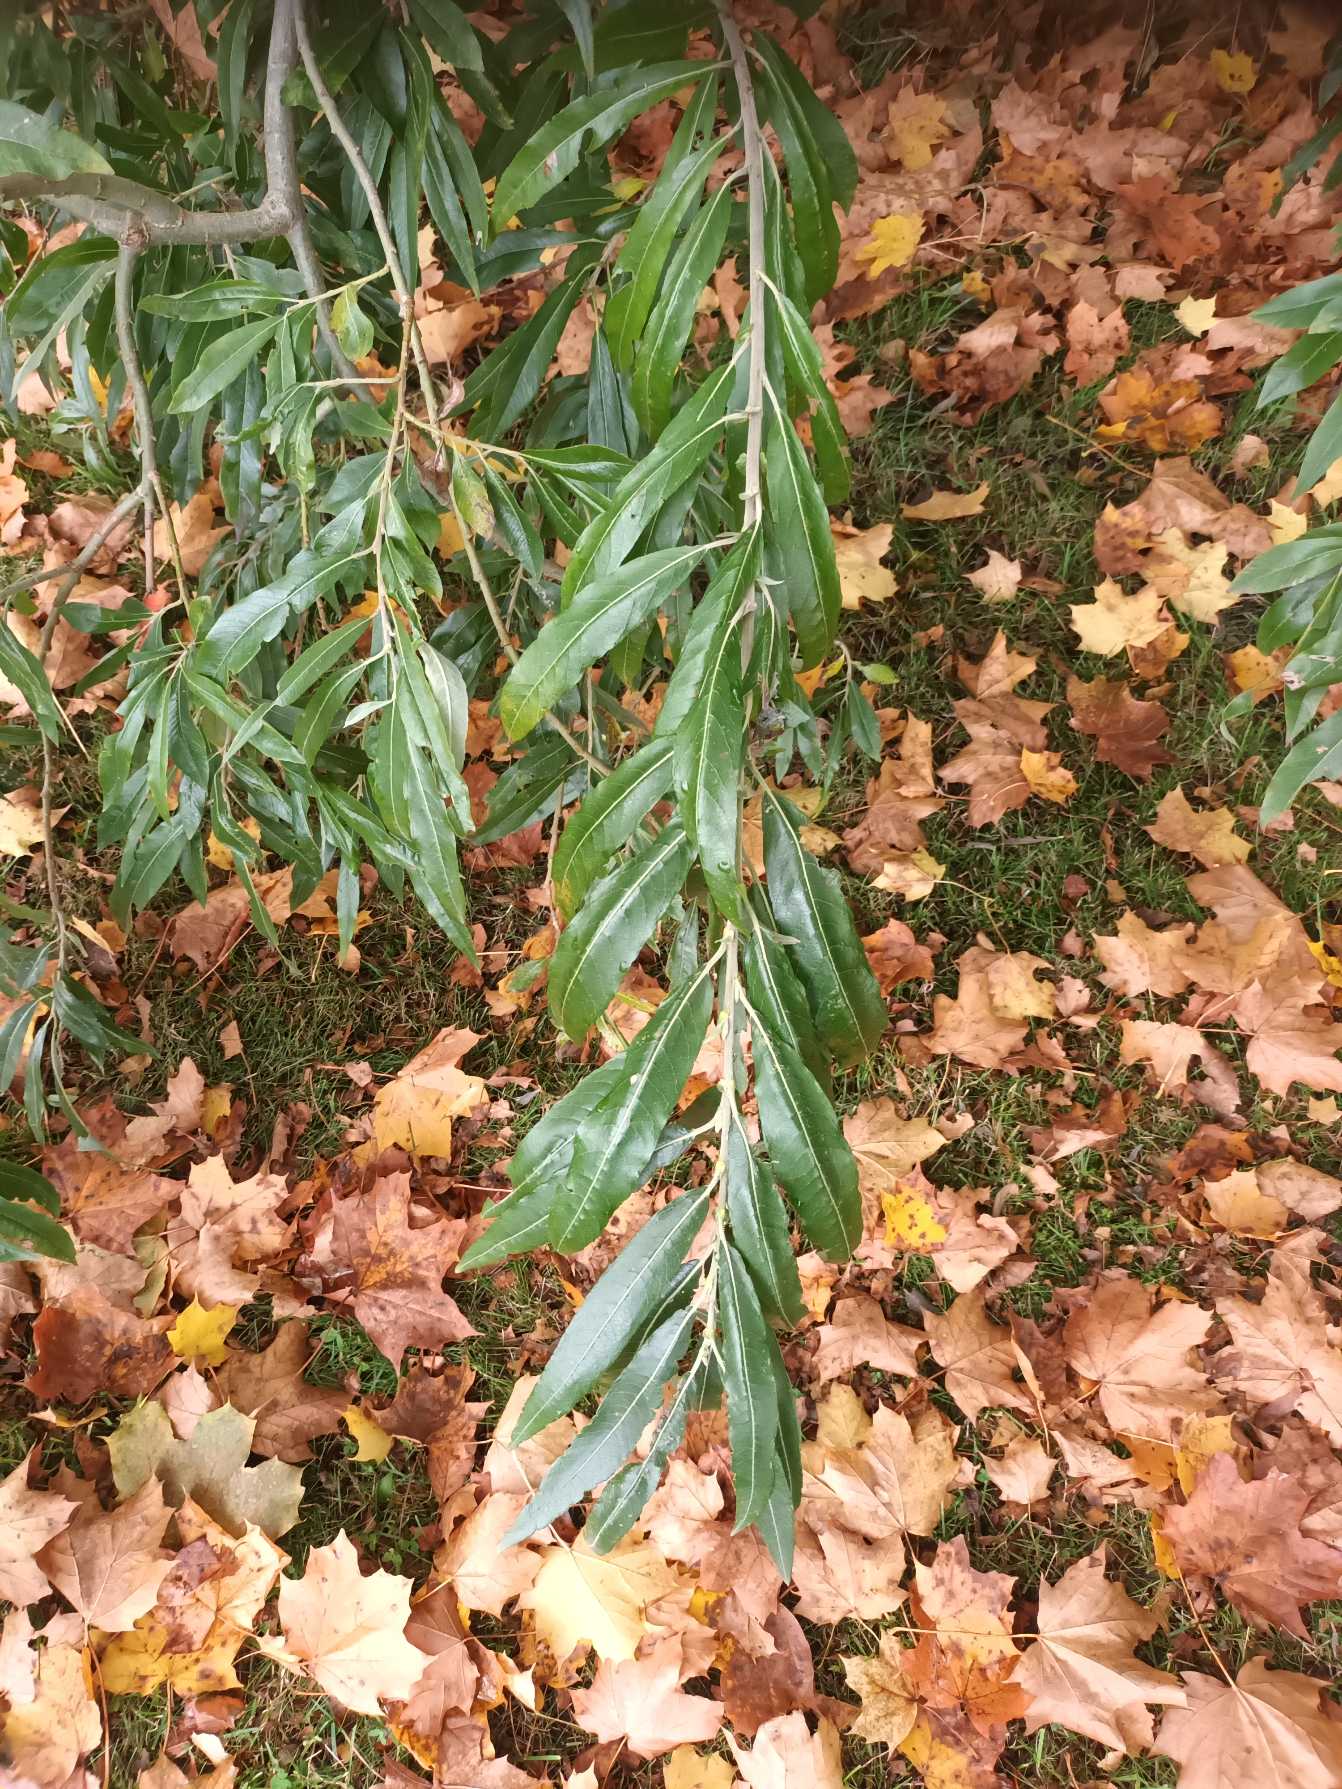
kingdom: Plantae
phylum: Tracheophyta
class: Magnoliopsida
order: Malpighiales
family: Salicaceae
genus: Salix
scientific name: Salix stipularis
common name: Langbladet pil
